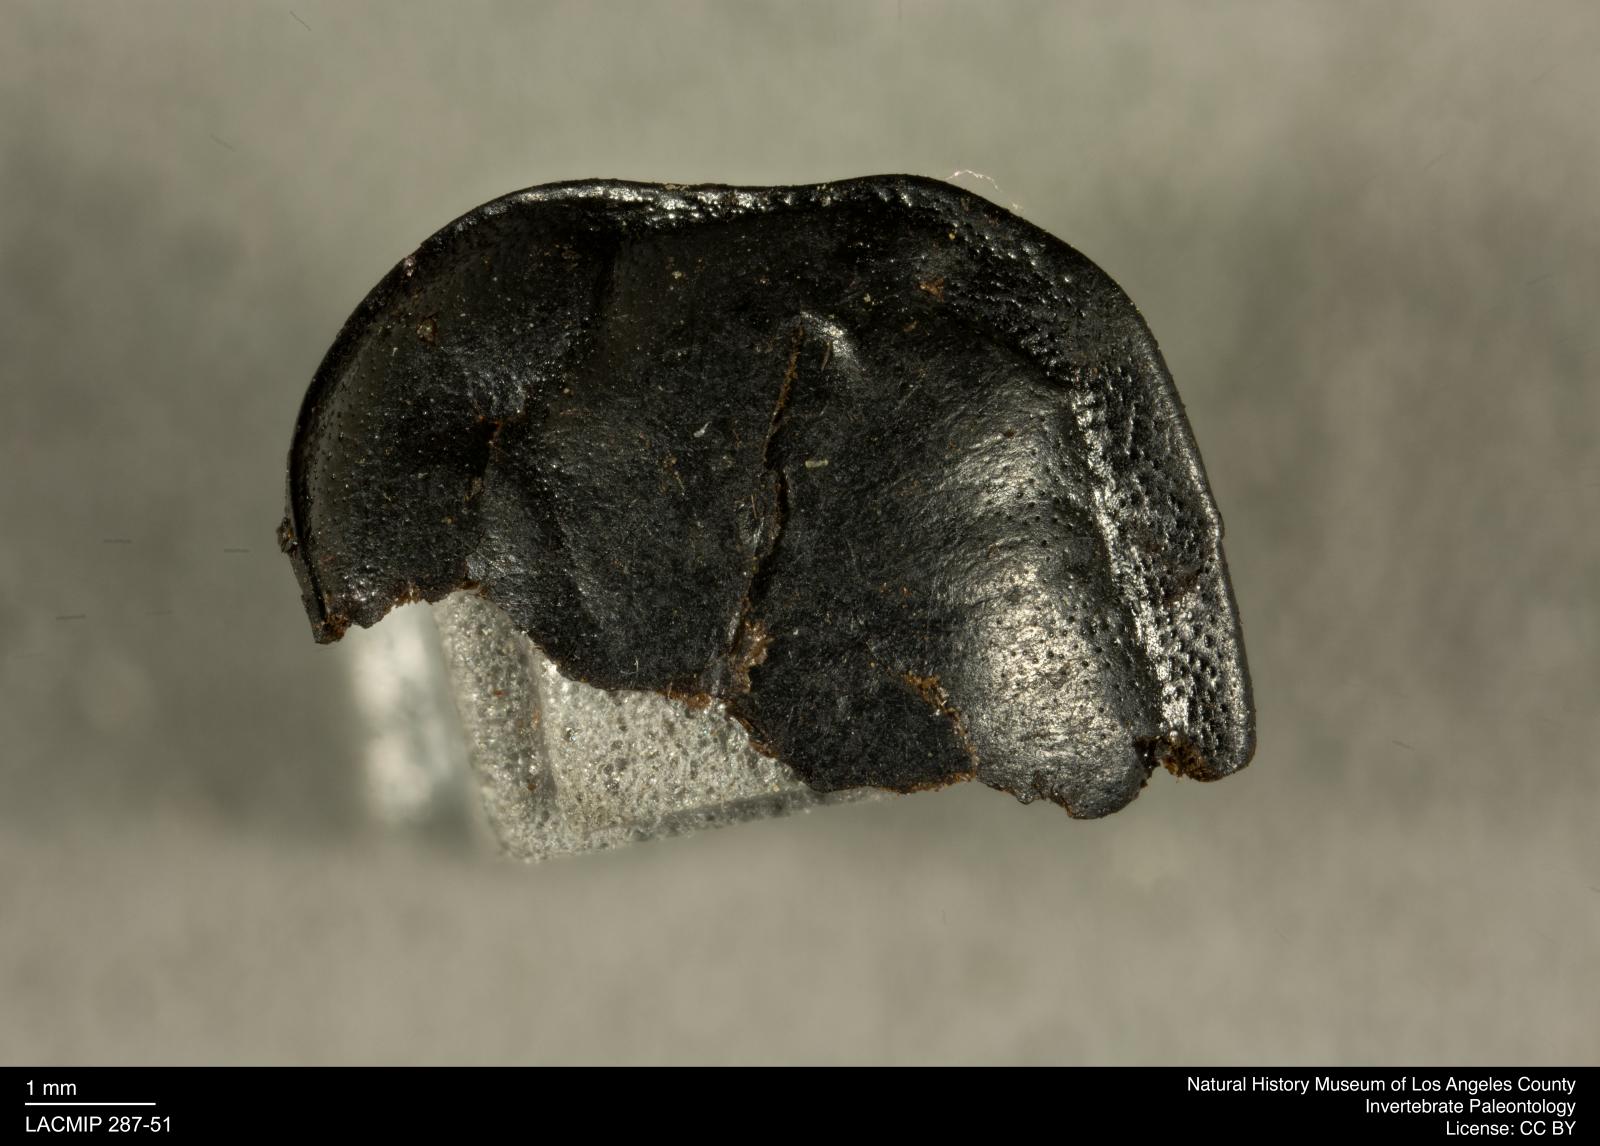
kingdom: Animalia
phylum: Arthropoda
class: Insecta
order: Coleoptera
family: Staphylinidae
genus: Nicrophorus
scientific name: Nicrophorus marginatus
